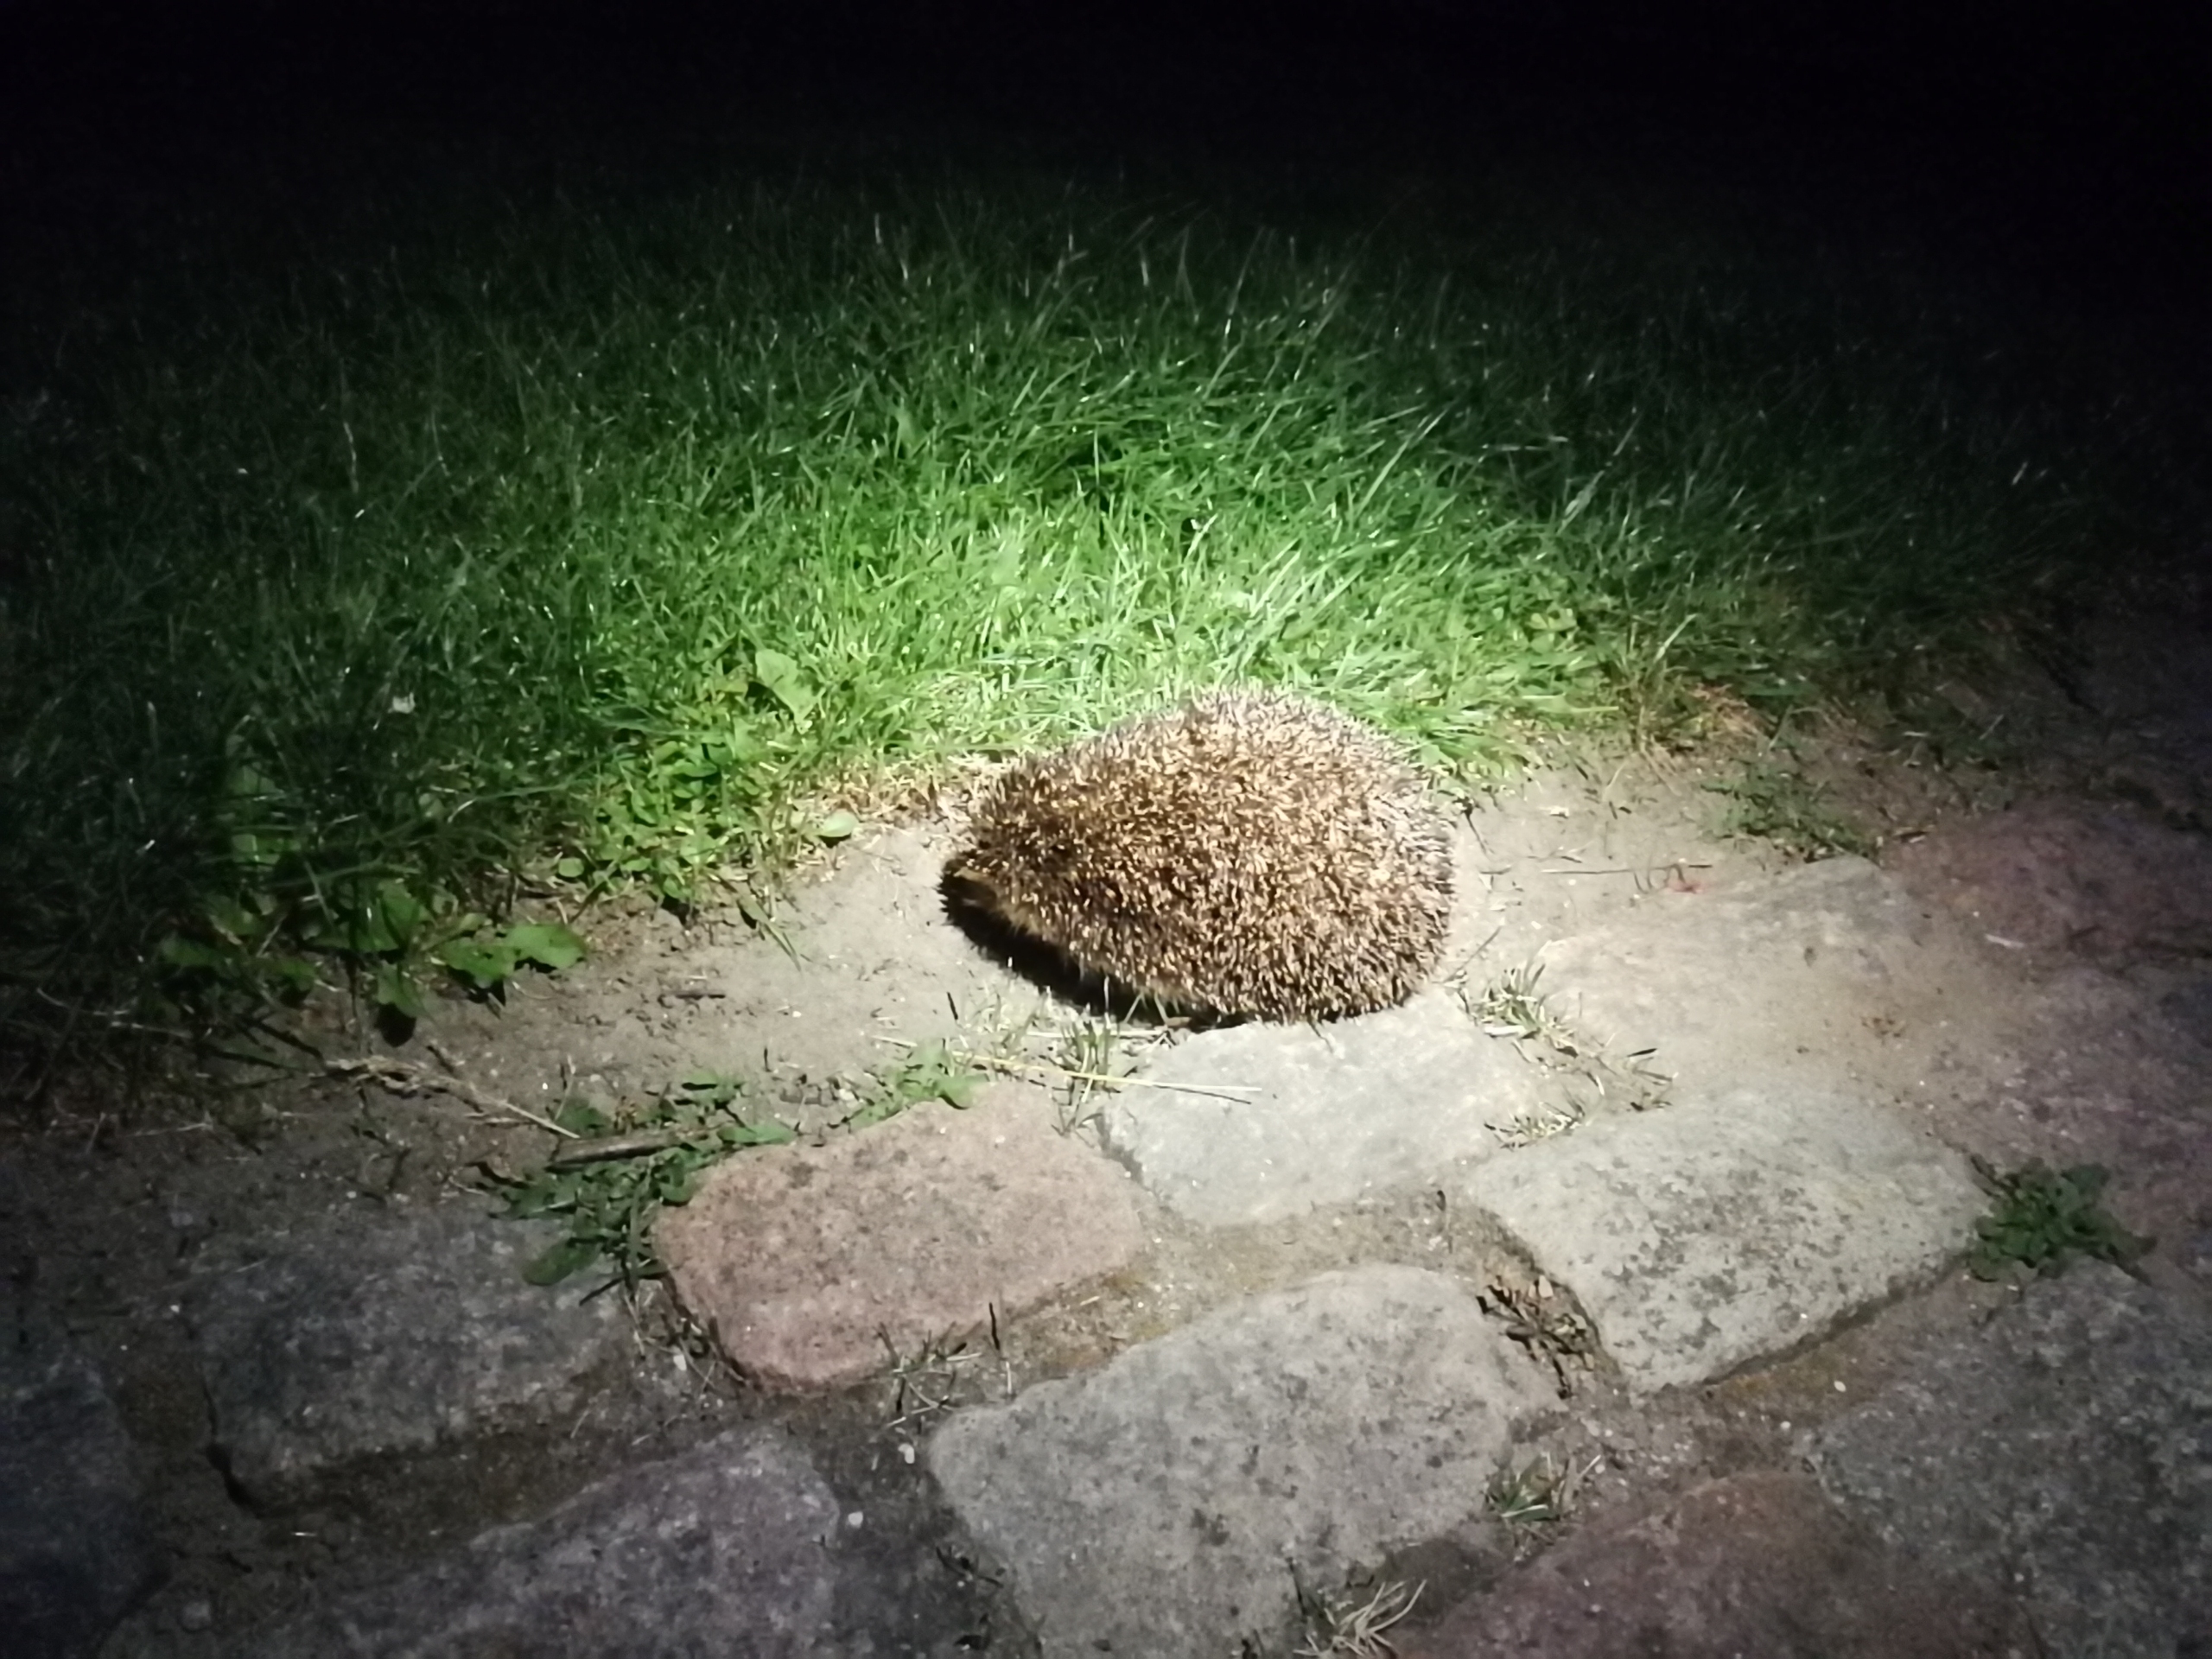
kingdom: Animalia
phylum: Chordata
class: Mammalia
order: Erinaceomorpha
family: Erinaceidae
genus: Erinaceus
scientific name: Erinaceus europaeus
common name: Pindsvin
